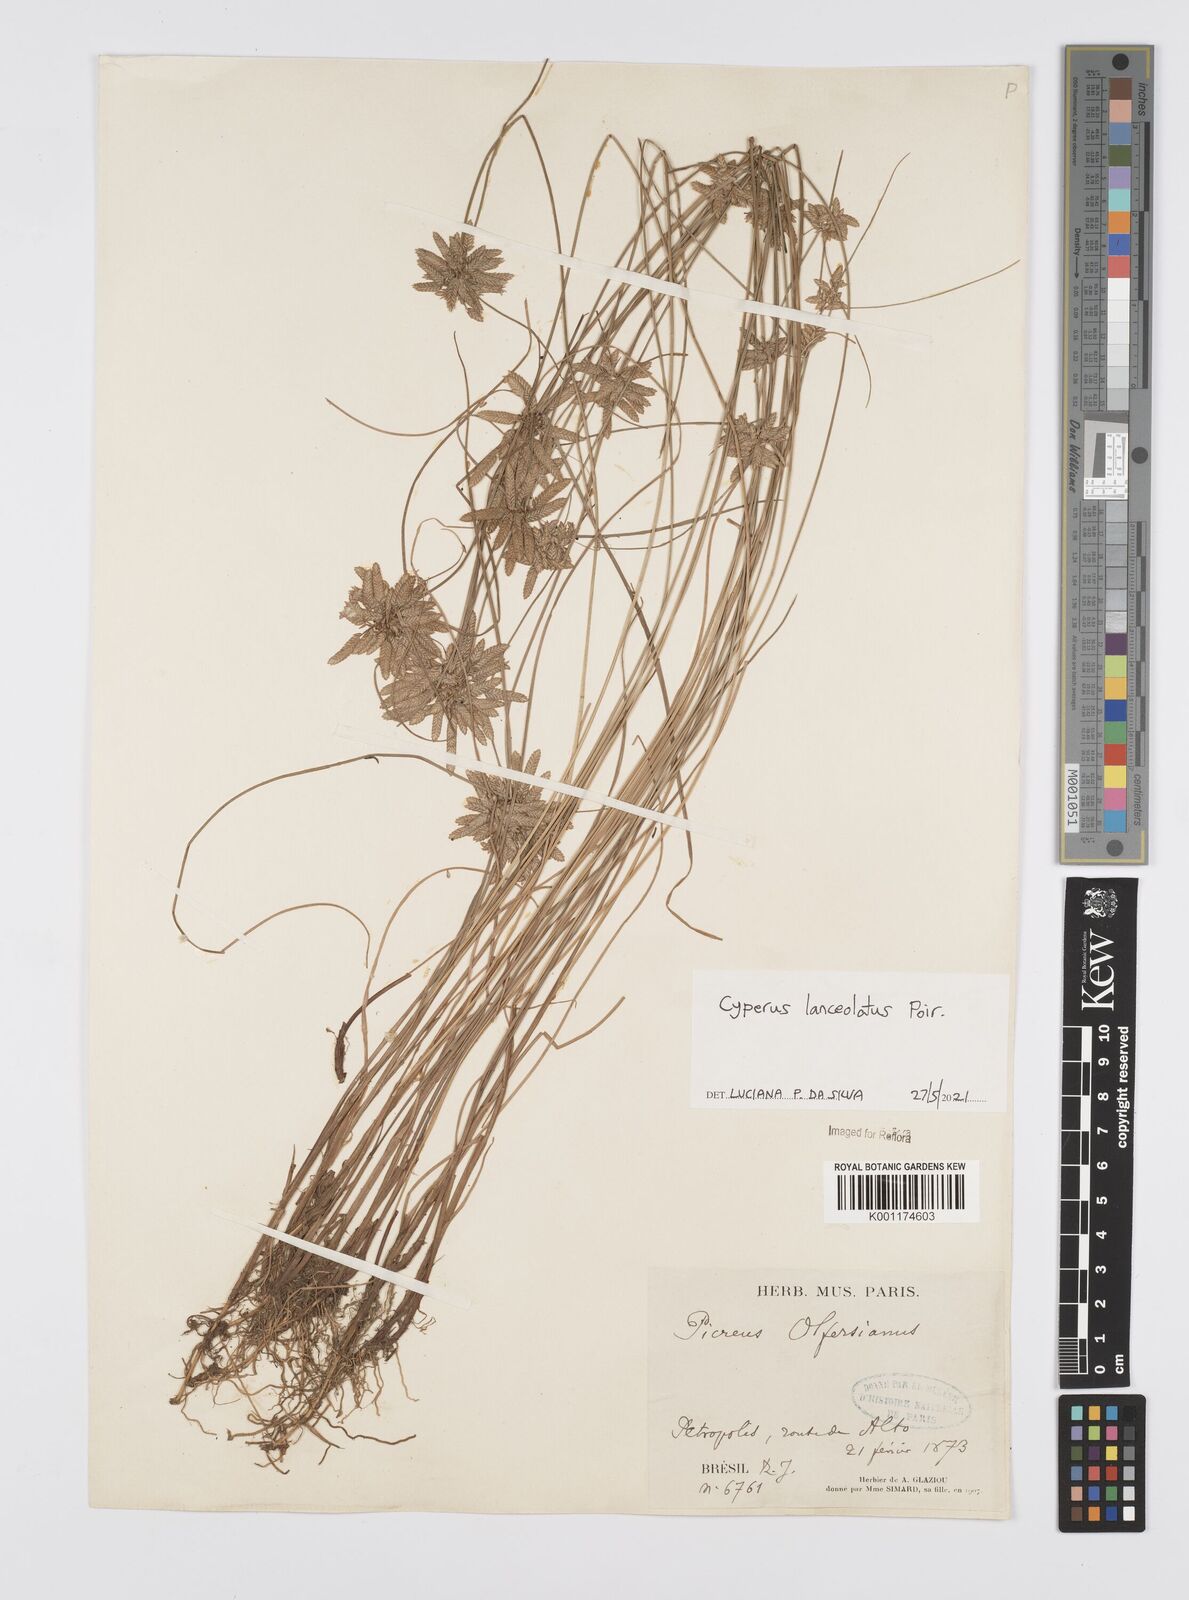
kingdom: Plantae
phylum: Tracheophyta
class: Liliopsida
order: Poales
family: Cyperaceae
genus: Cyperus
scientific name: Cyperus lanceolatus
